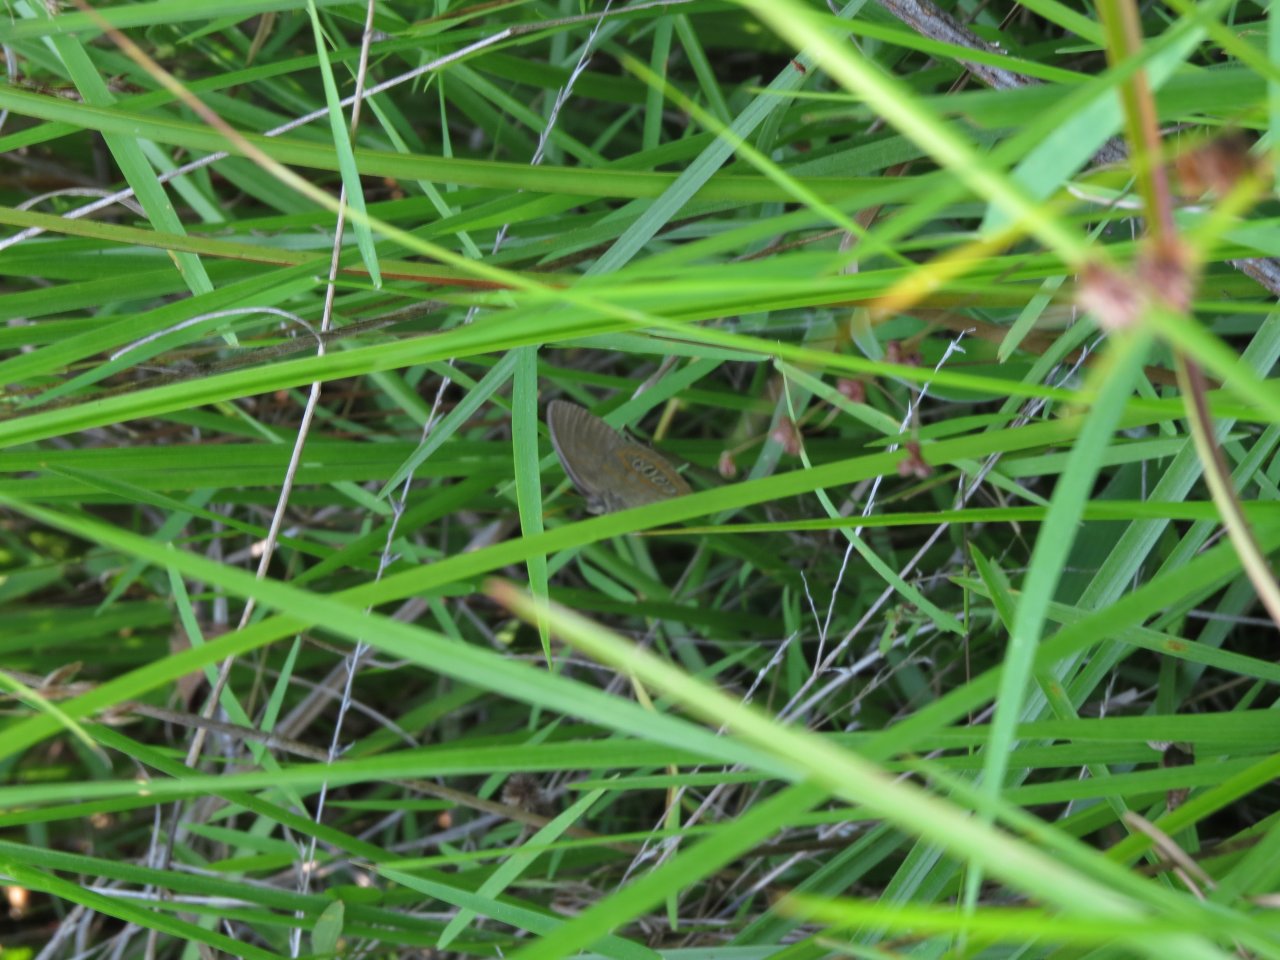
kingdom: Animalia
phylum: Arthropoda
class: Insecta
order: Lepidoptera
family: Nymphalidae
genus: Euptychia
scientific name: Euptychia Neonympha helicta
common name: Helicta Satyr
